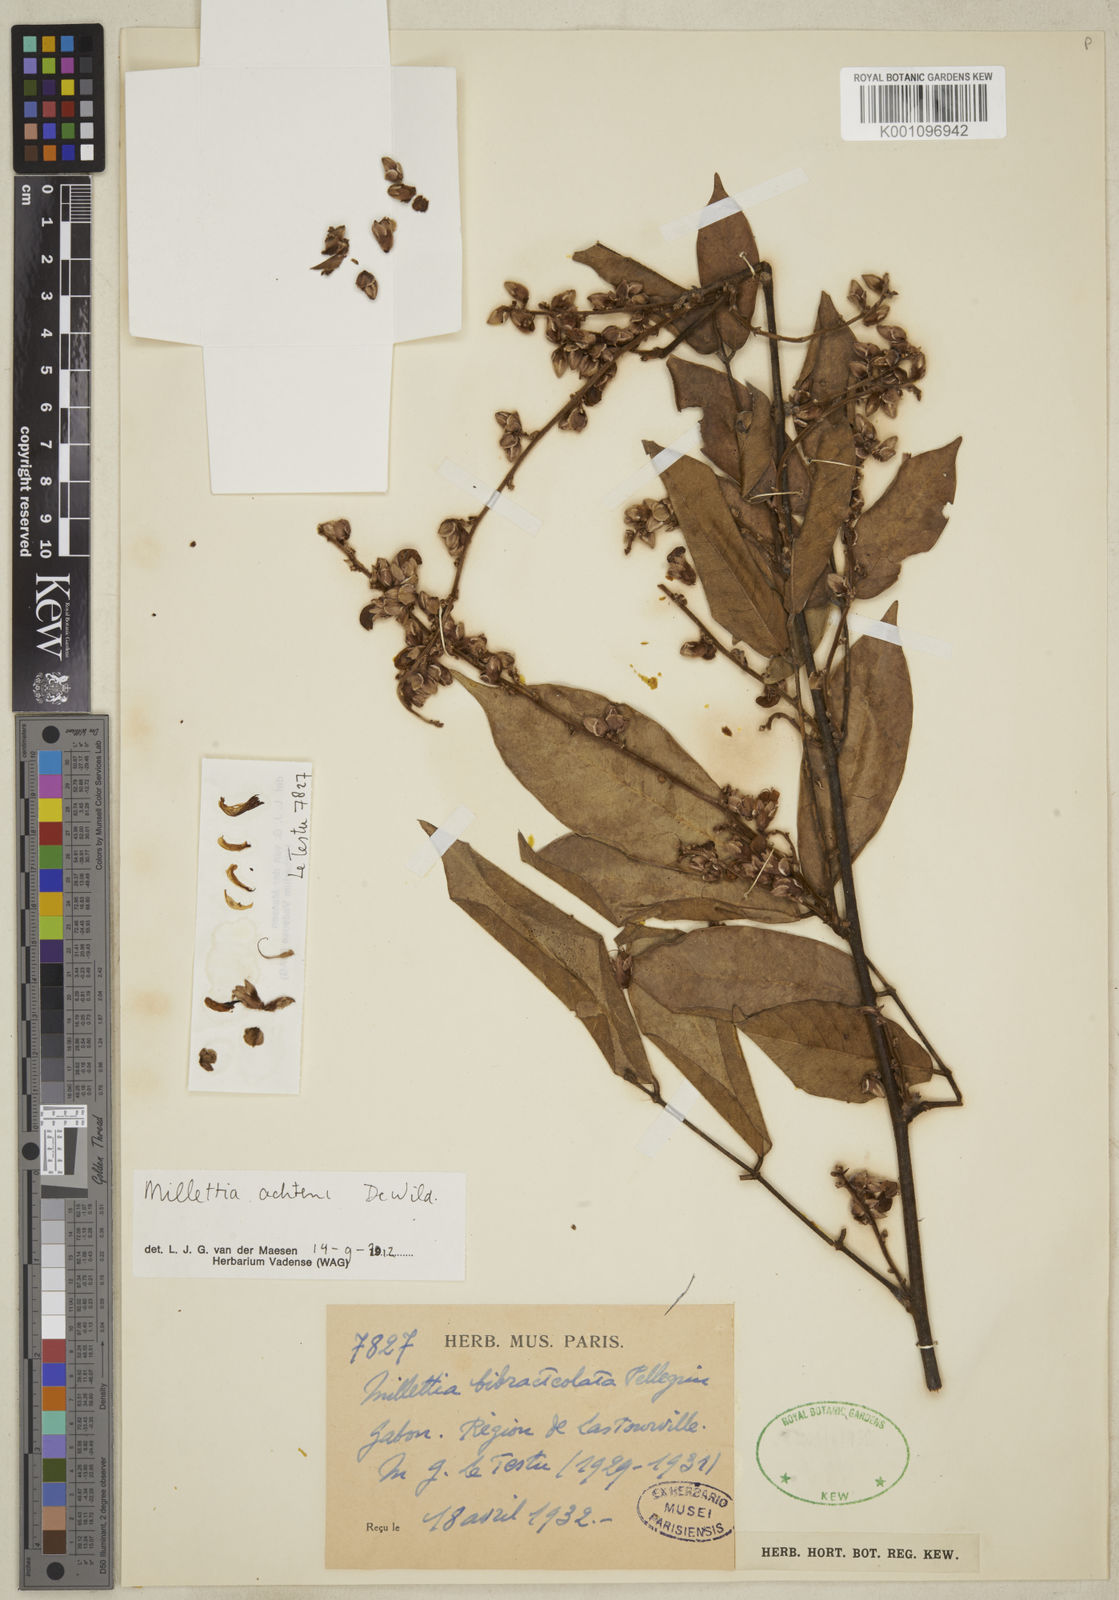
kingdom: Plantae
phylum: Tracheophyta
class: Magnoliopsida
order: Fabales
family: Fabaceae
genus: Millettia
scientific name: Millettia achtenii
